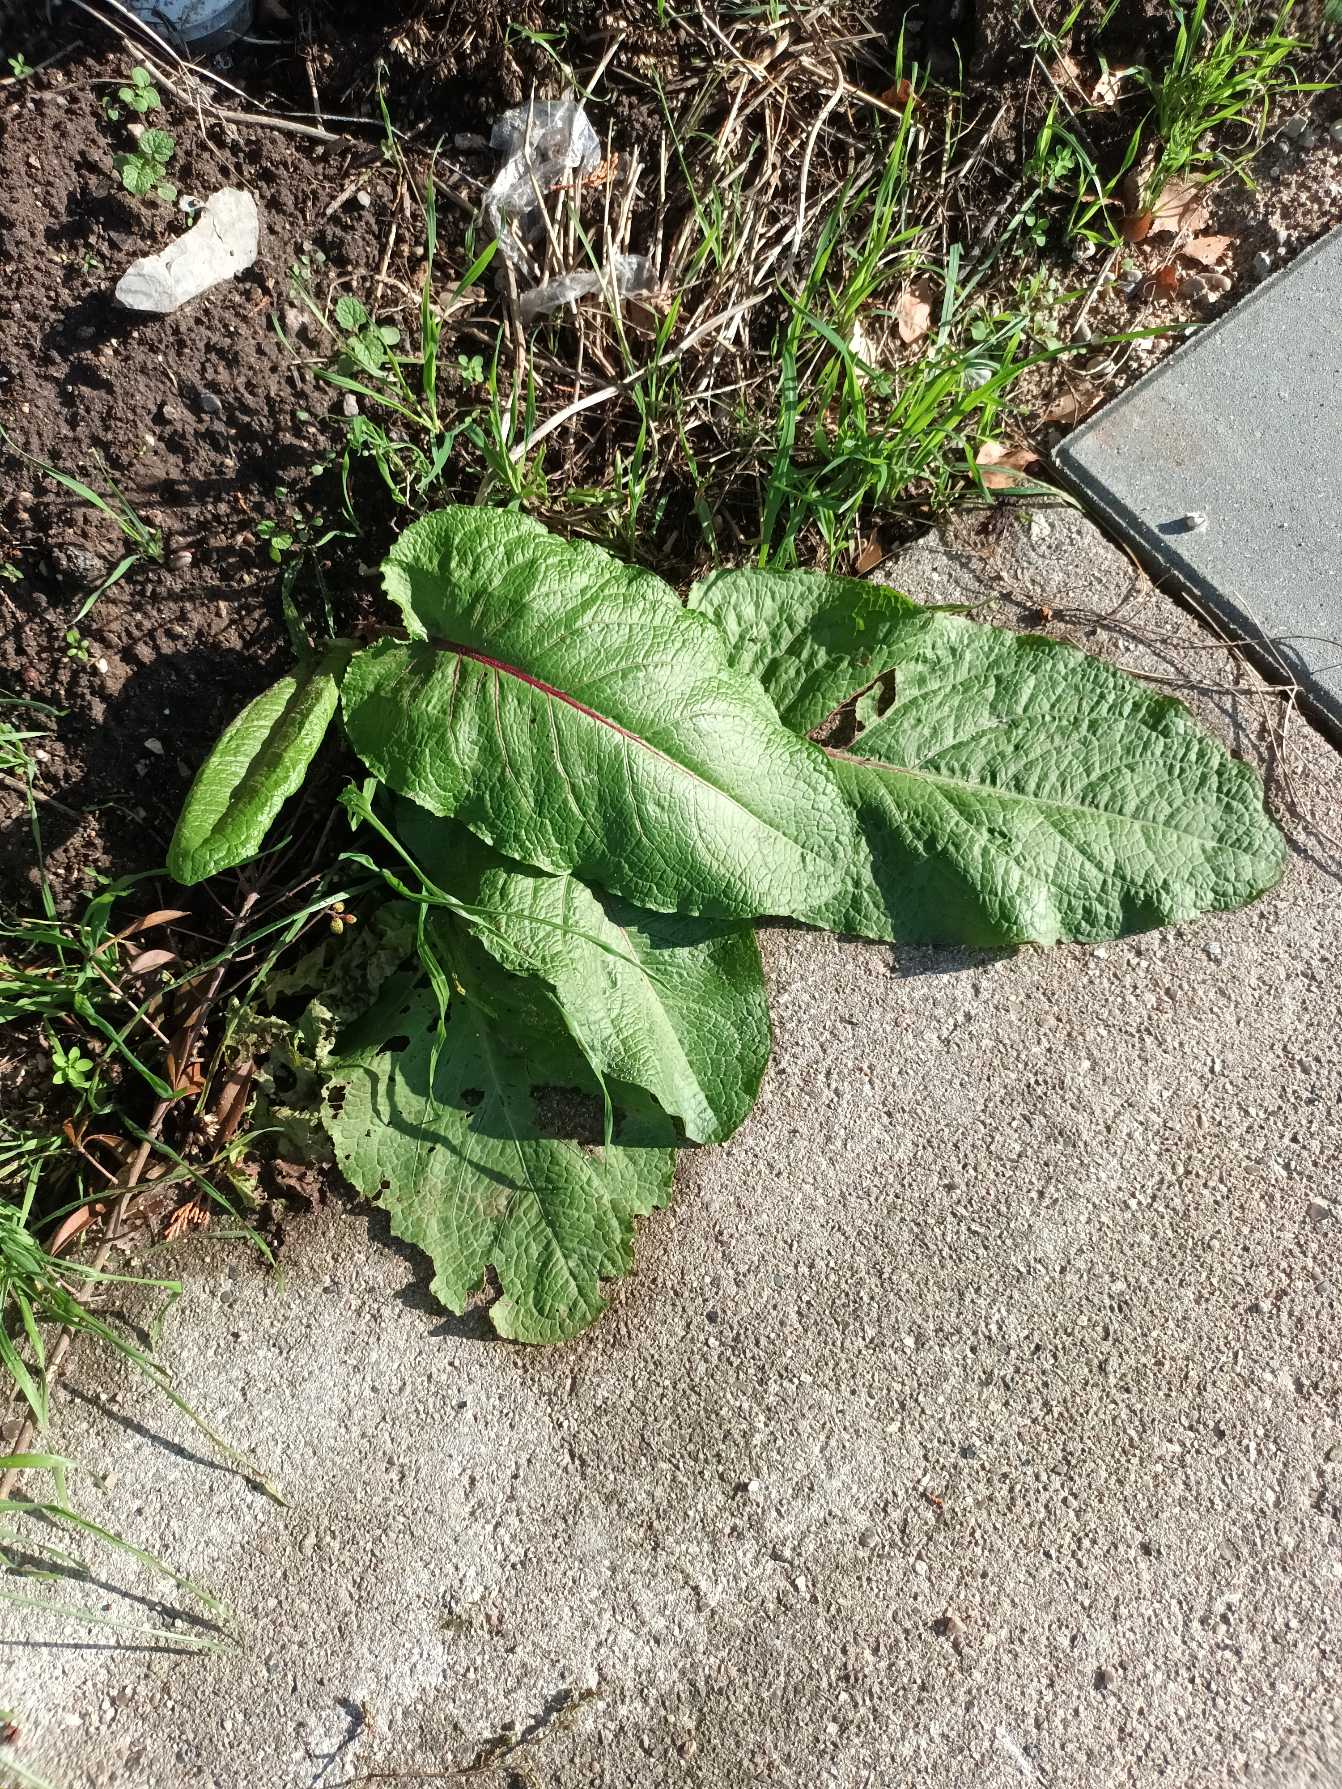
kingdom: Plantae
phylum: Tracheophyta
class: Magnoliopsida
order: Caryophyllales
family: Polygonaceae
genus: Rumex
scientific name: Rumex obtusifolius
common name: Butbladet skræppe
